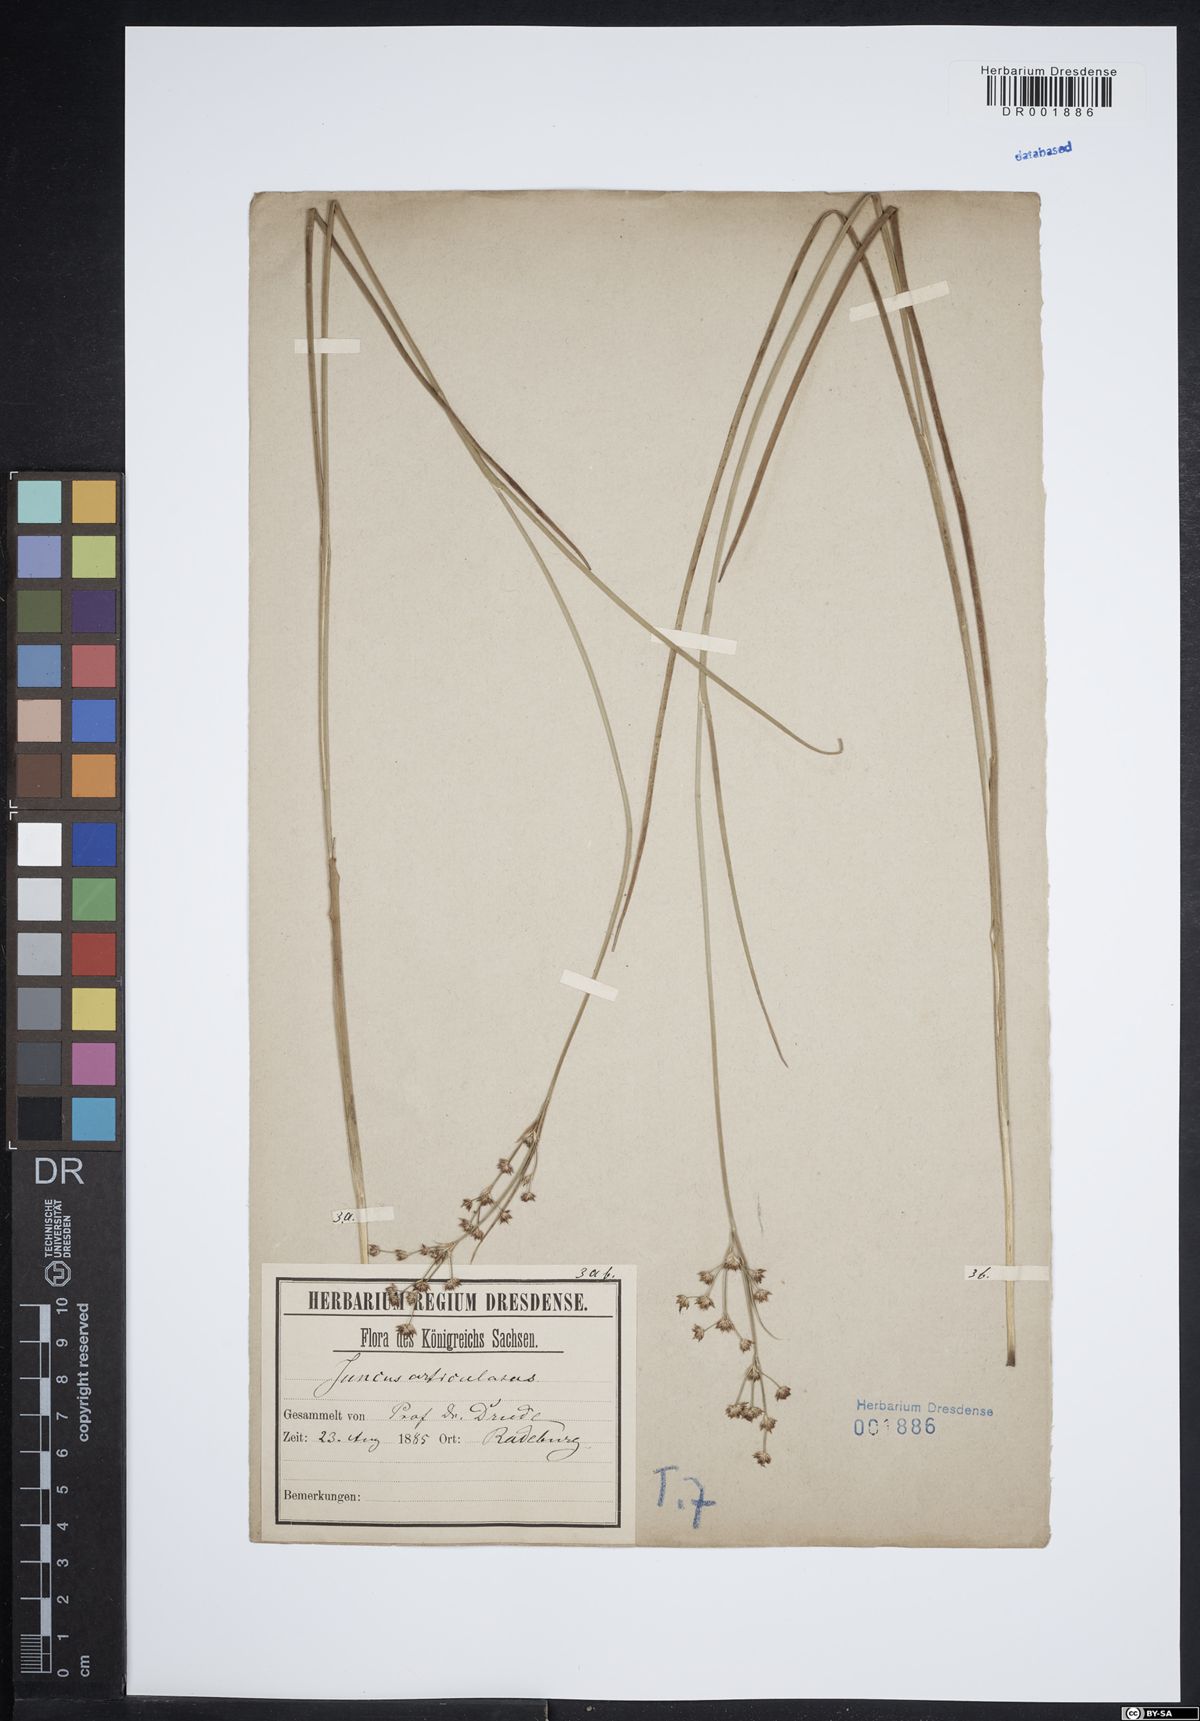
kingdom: Plantae
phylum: Tracheophyta
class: Liliopsida
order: Poales
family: Juncaceae
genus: Juncus
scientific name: Juncus articulatus
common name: Jointed rush
